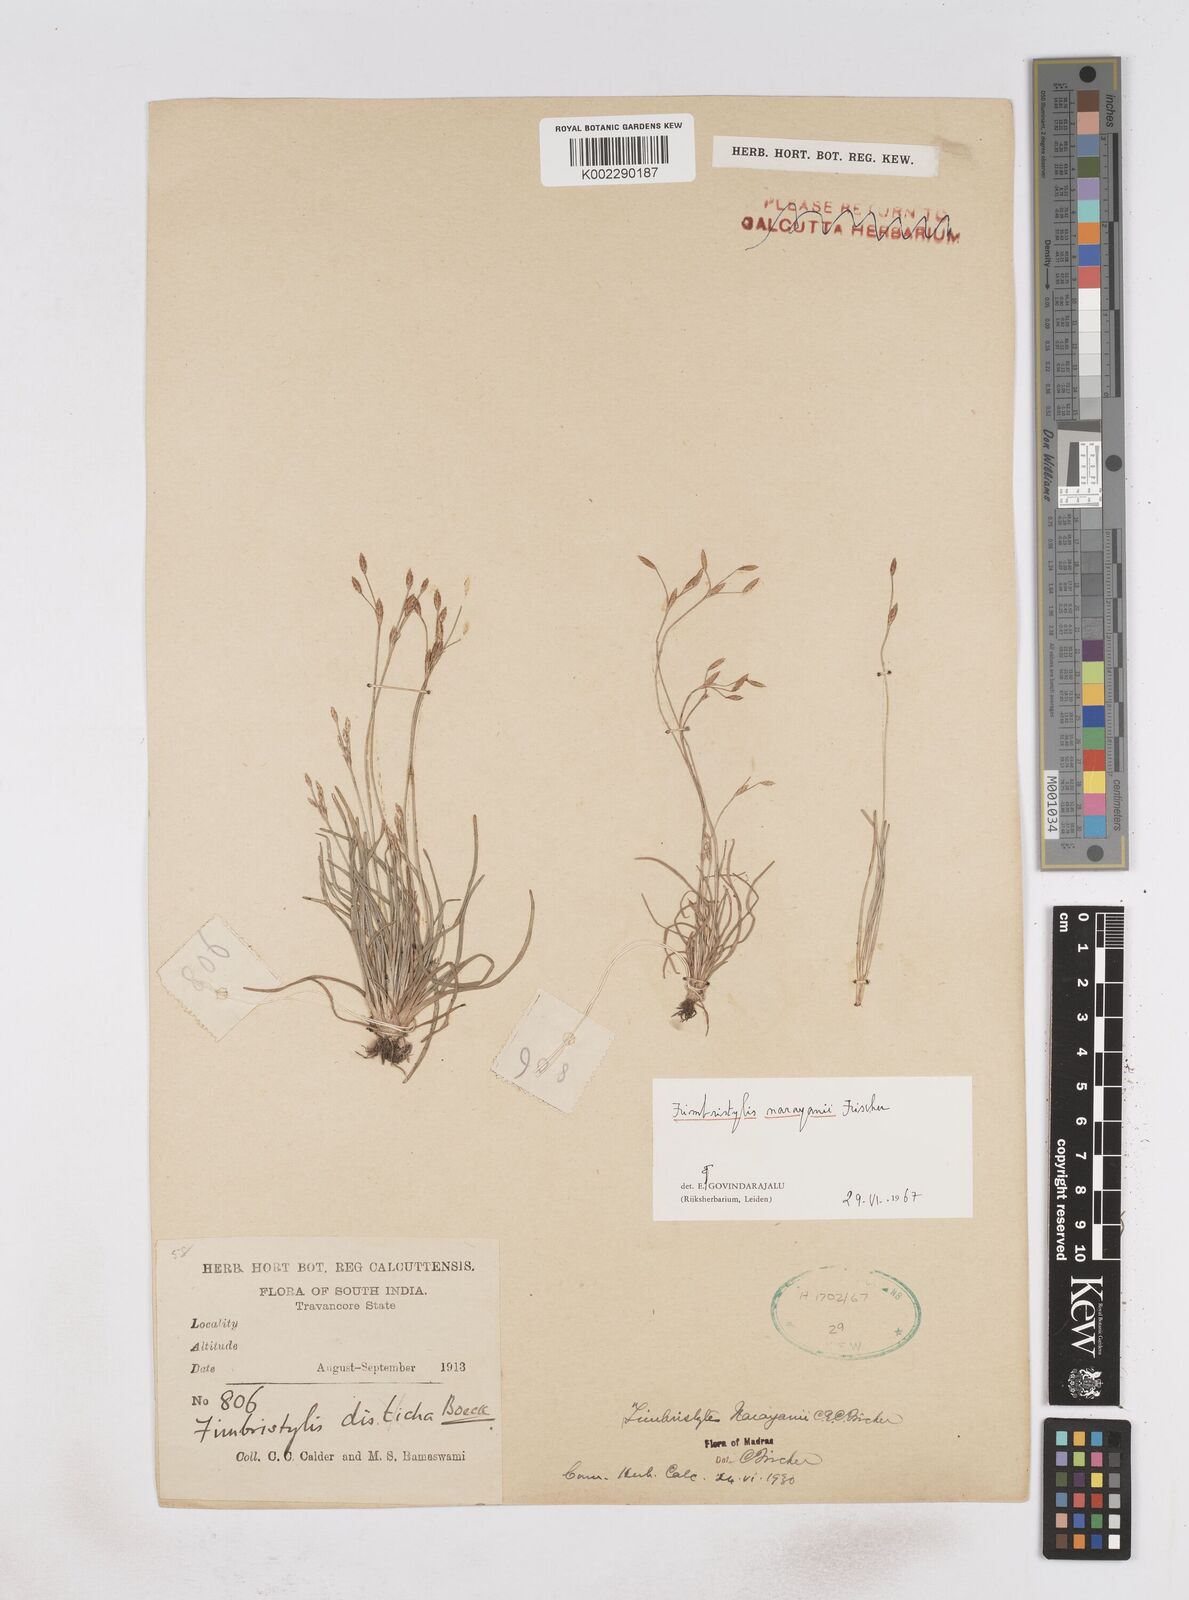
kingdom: Plantae
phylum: Tracheophyta
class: Liliopsida
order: Poales
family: Cyperaceae
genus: Fimbristylis
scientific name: Fimbristylis narayanii
